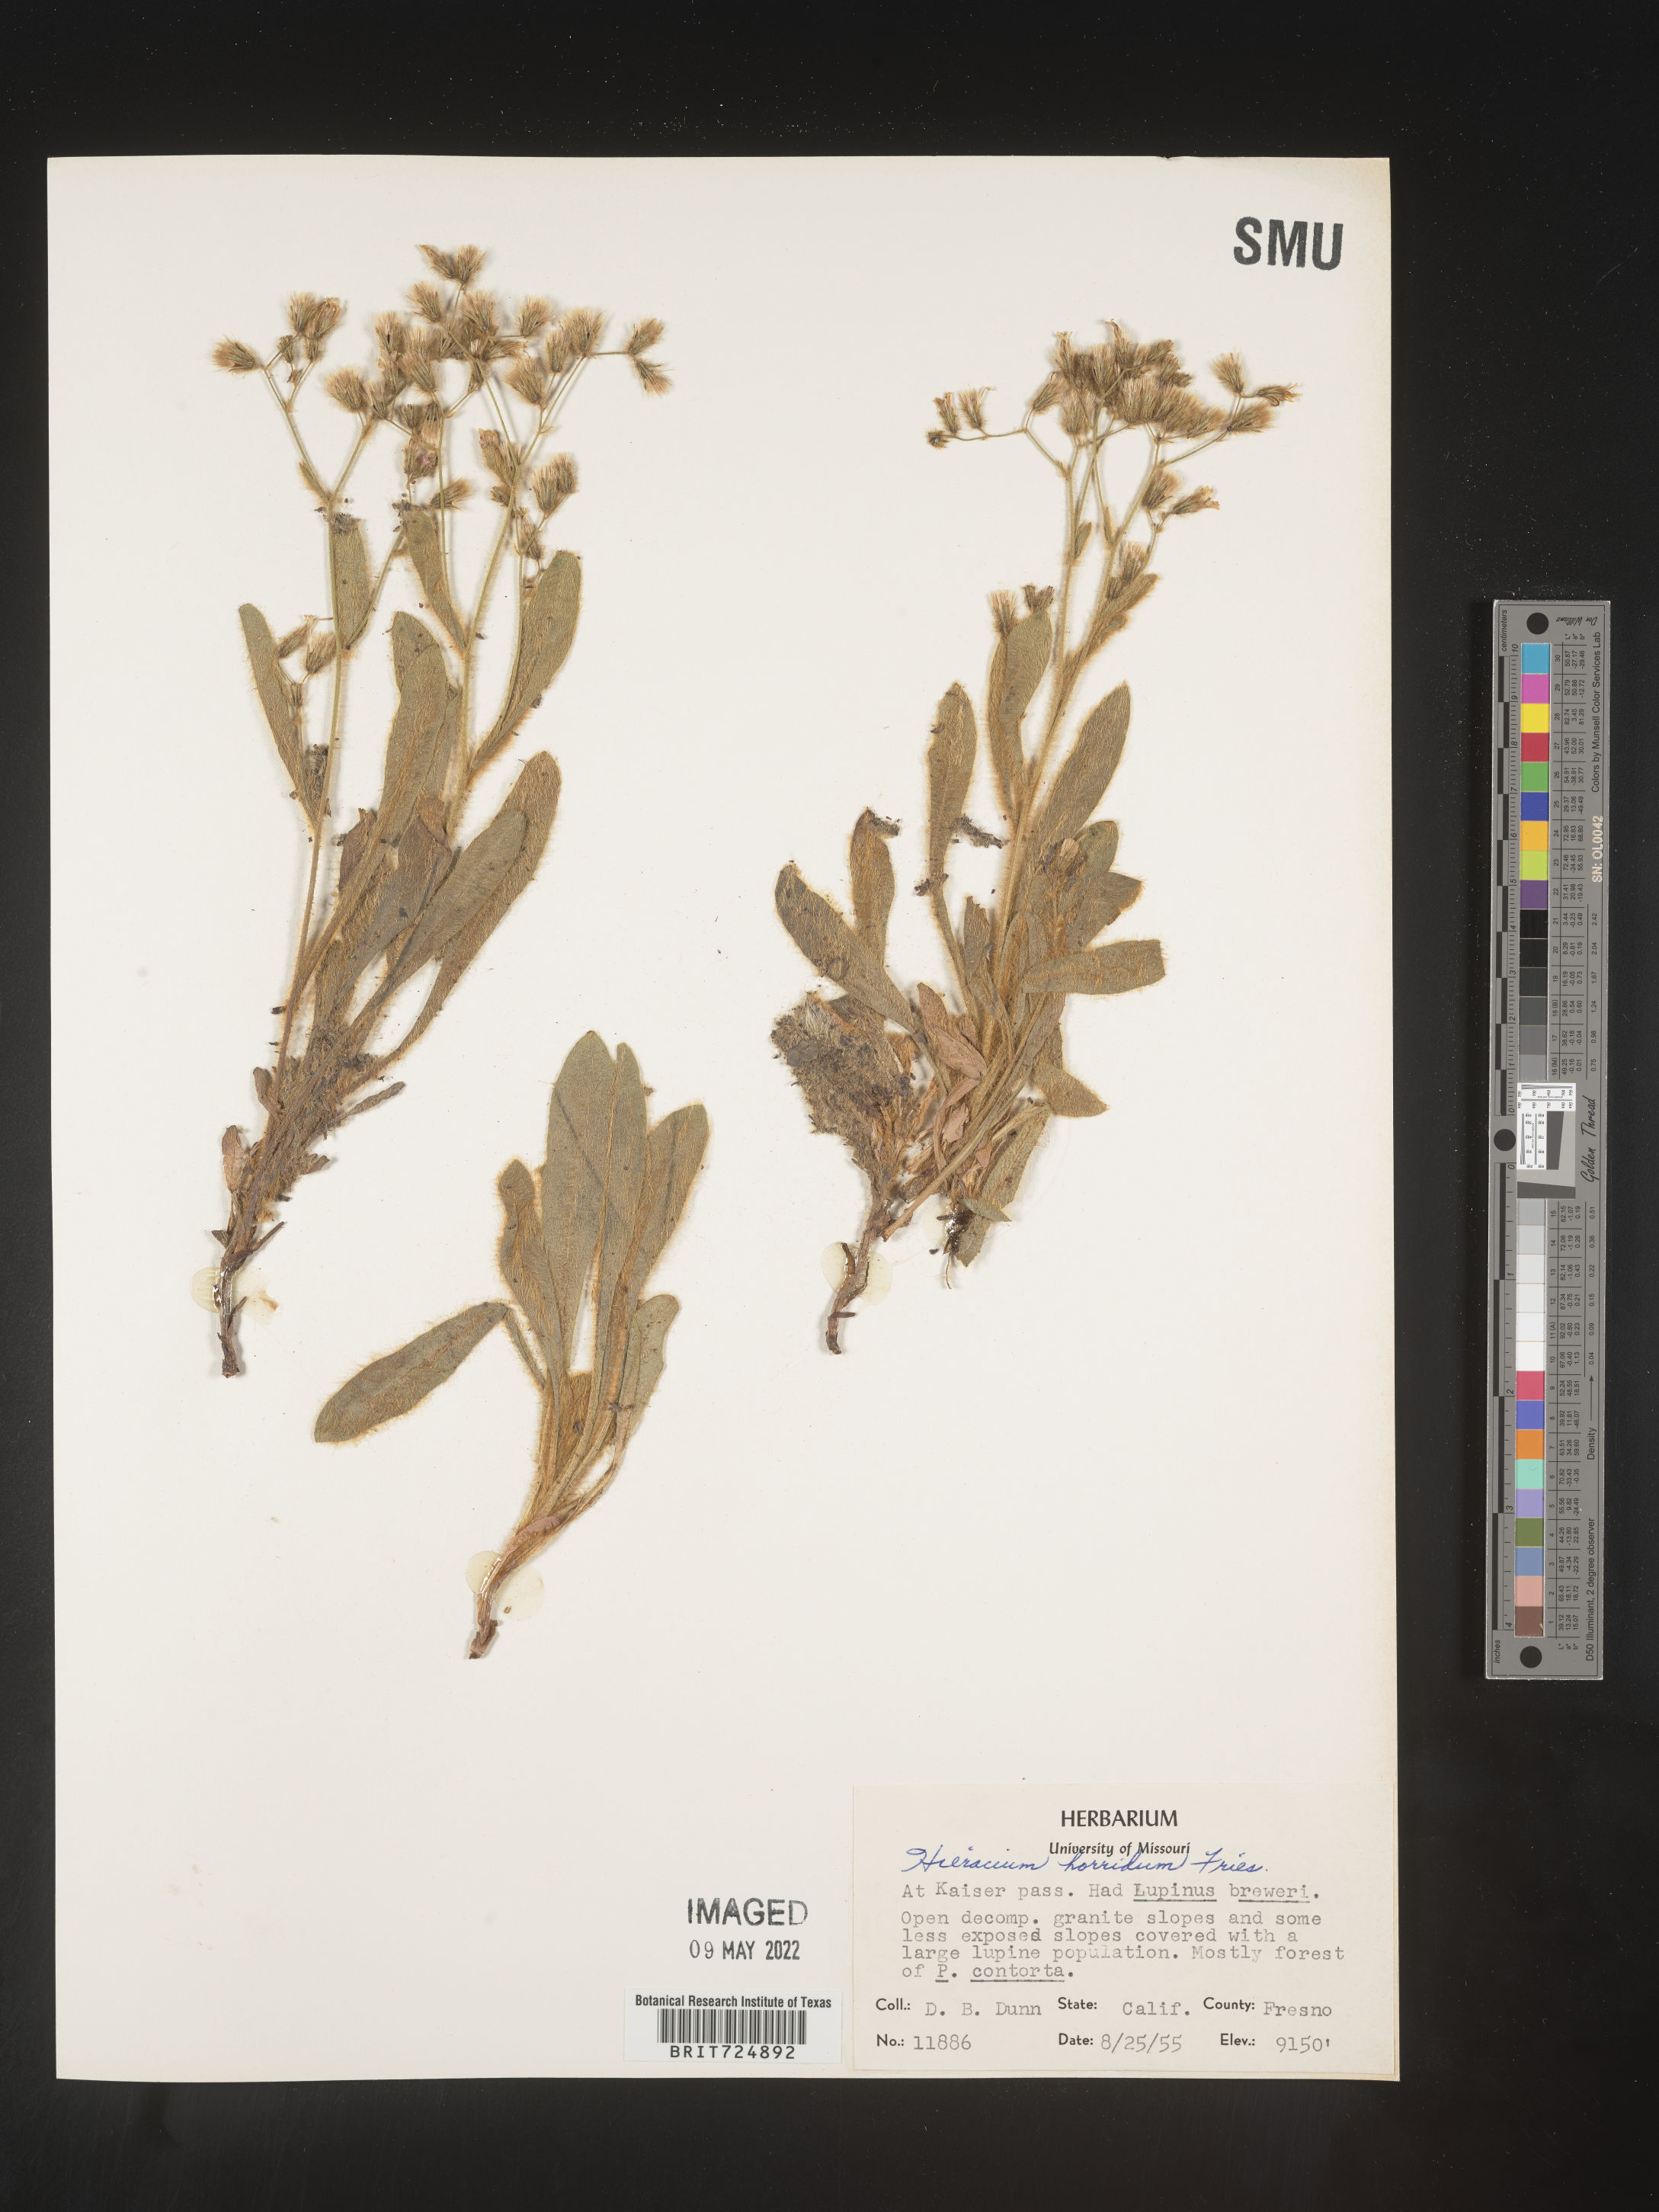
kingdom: Plantae
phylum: Tracheophyta
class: Magnoliopsida
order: Asterales
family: Asteraceae
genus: Hieracium
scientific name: Hieracium
